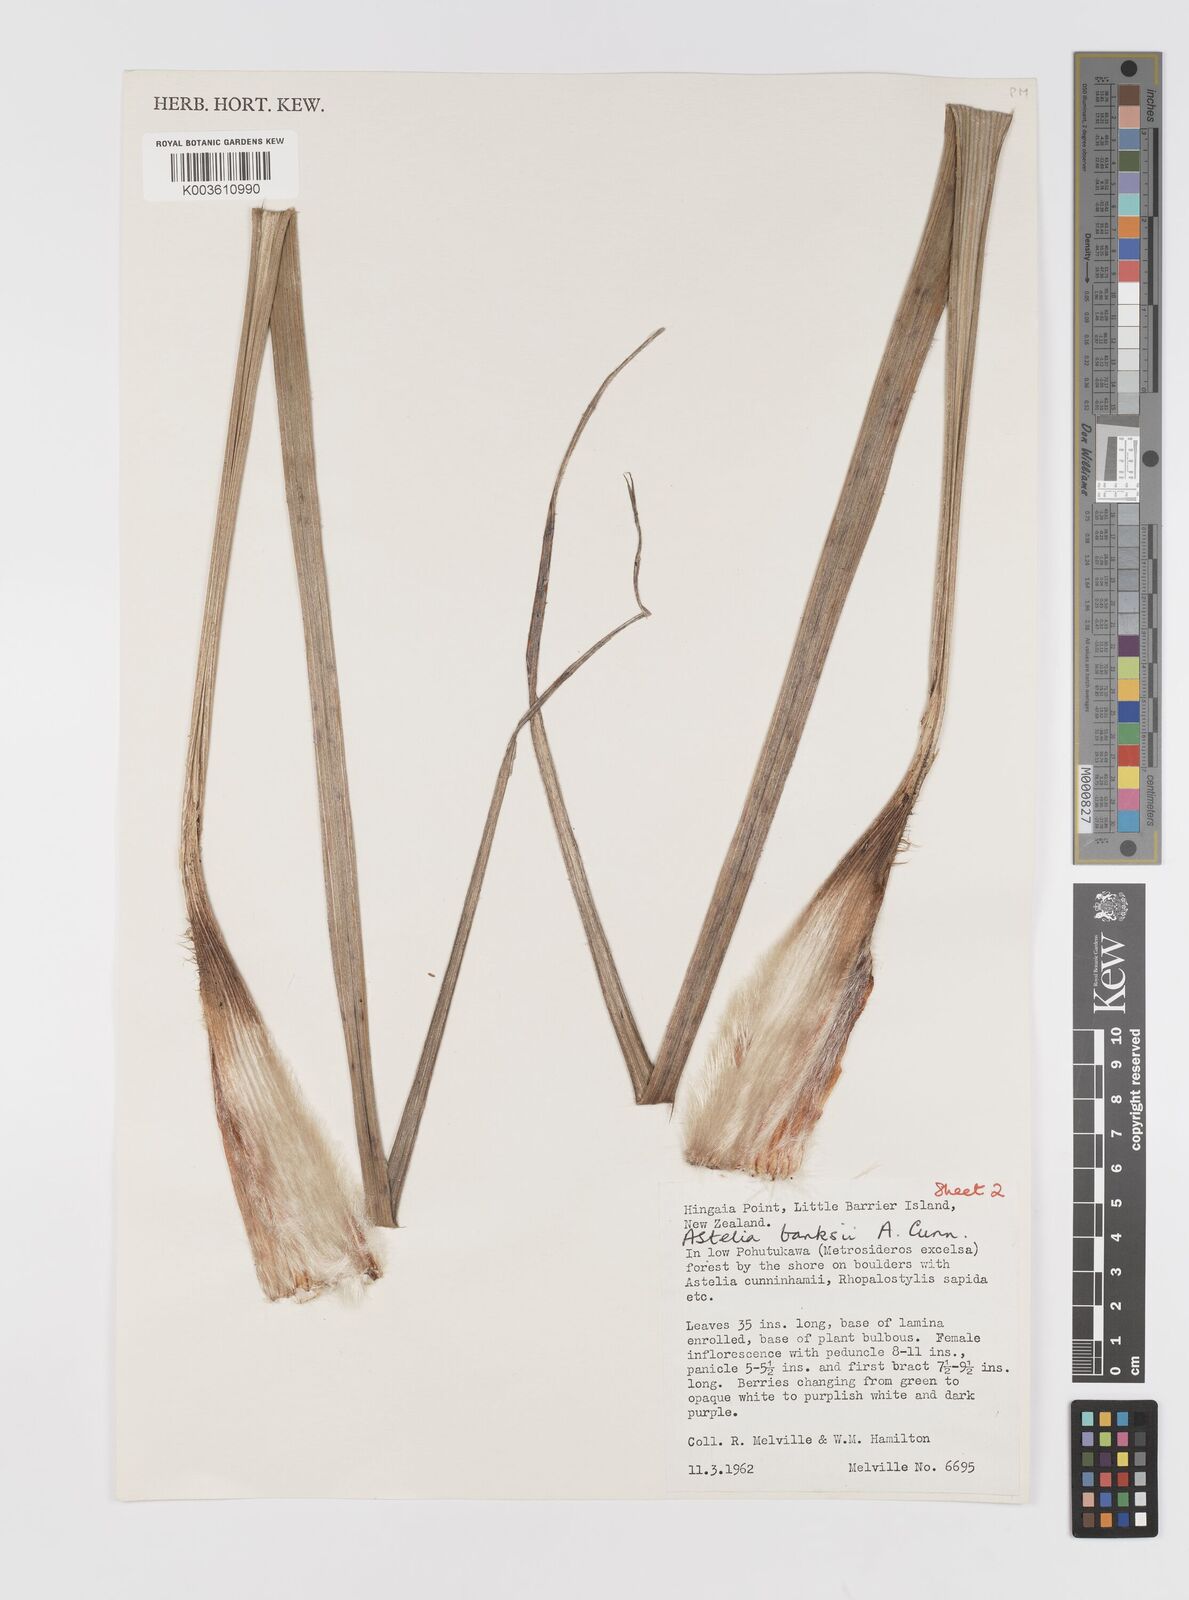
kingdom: Plantae
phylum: Tracheophyta
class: Liliopsida
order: Asparagales
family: Asteliaceae
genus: Astelia
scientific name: Astelia banksii
